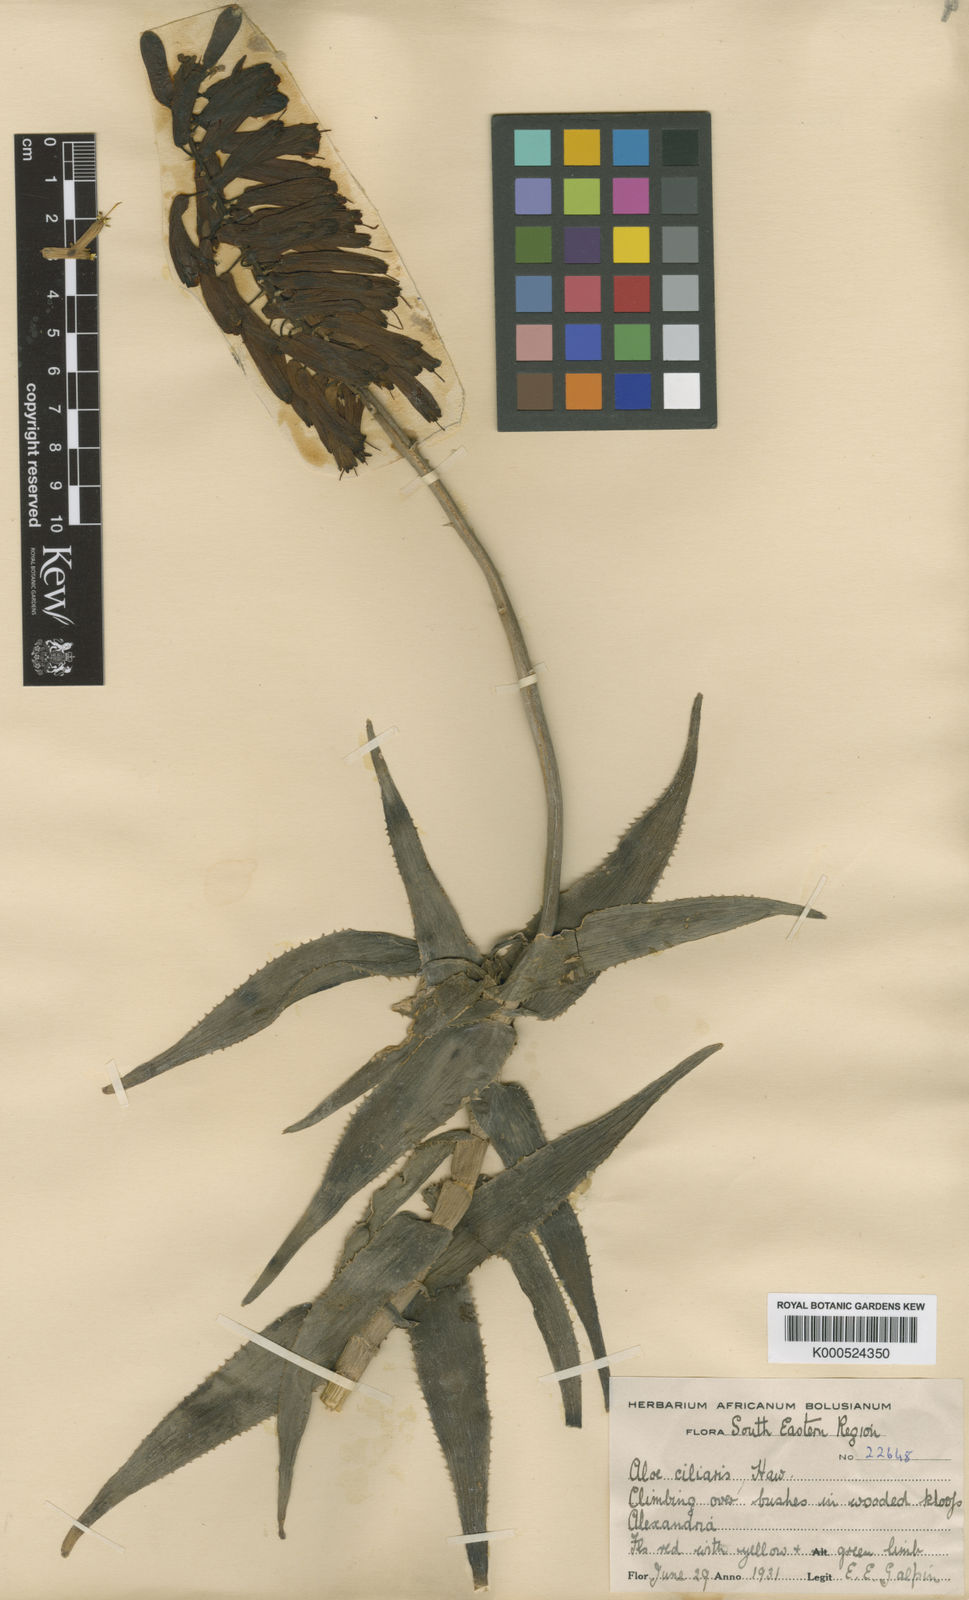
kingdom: Plantae
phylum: Tracheophyta
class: Liliopsida
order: Asparagales
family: Asphodelaceae
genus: Aloiampelos
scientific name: Aloiampelos ciliaris
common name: Climbing aloe
